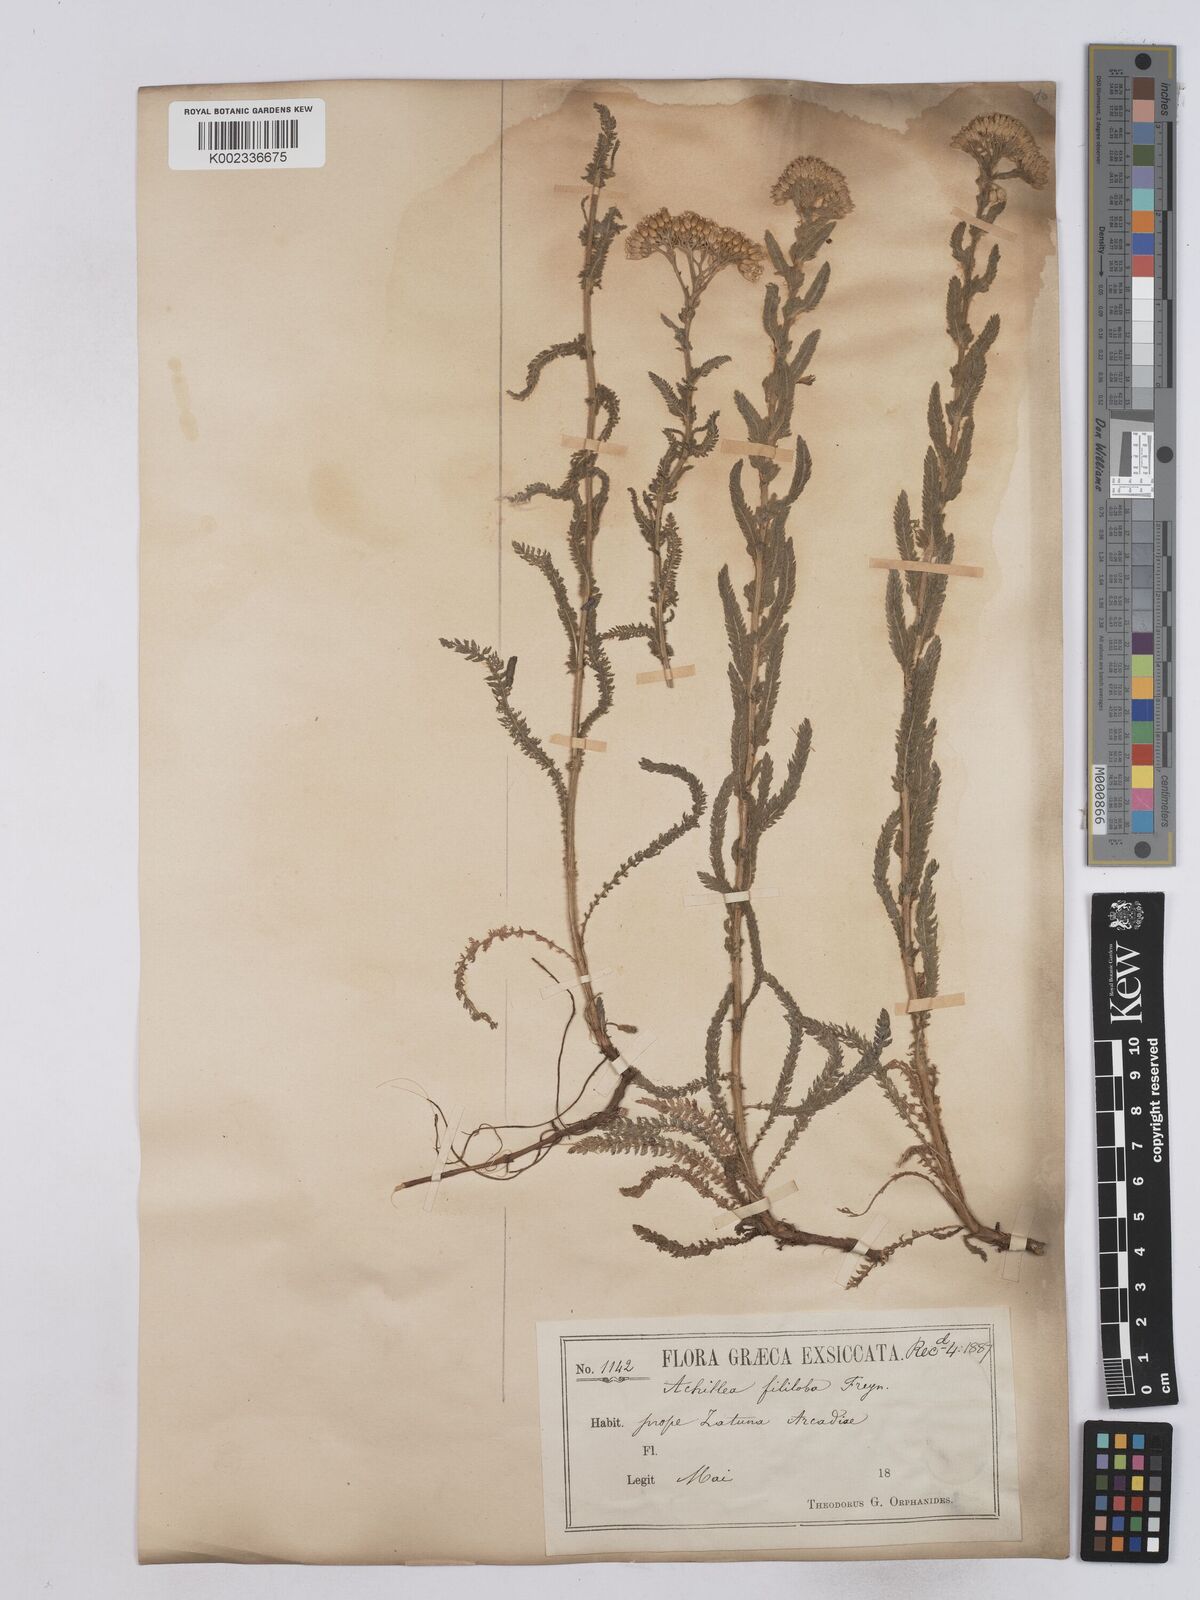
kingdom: Plantae
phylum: Tracheophyta
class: Magnoliopsida
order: Asterales
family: Asteraceae
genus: Achillea
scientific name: Achillea setacea
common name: Bristly yarrow
